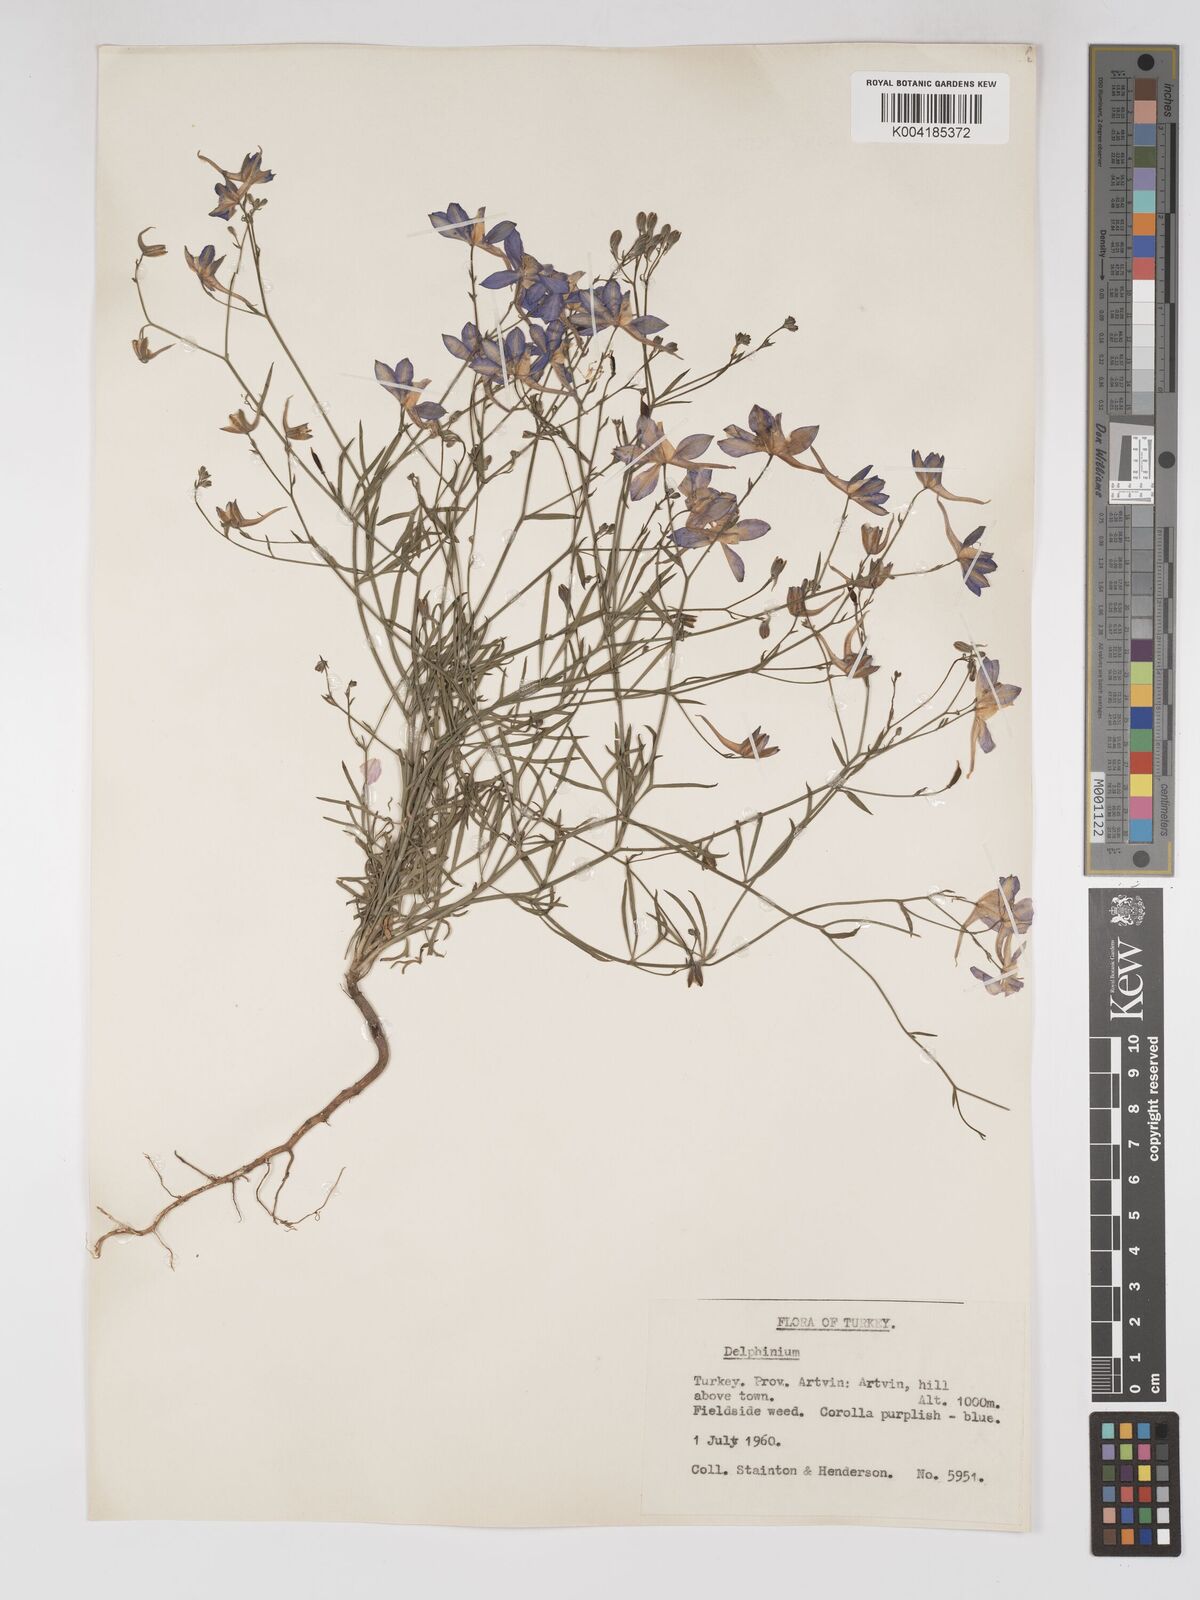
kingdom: Plantae
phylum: Tracheophyta
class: Magnoliopsida
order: Ranunculales
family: Ranunculaceae
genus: Delphinium
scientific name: Delphinium
